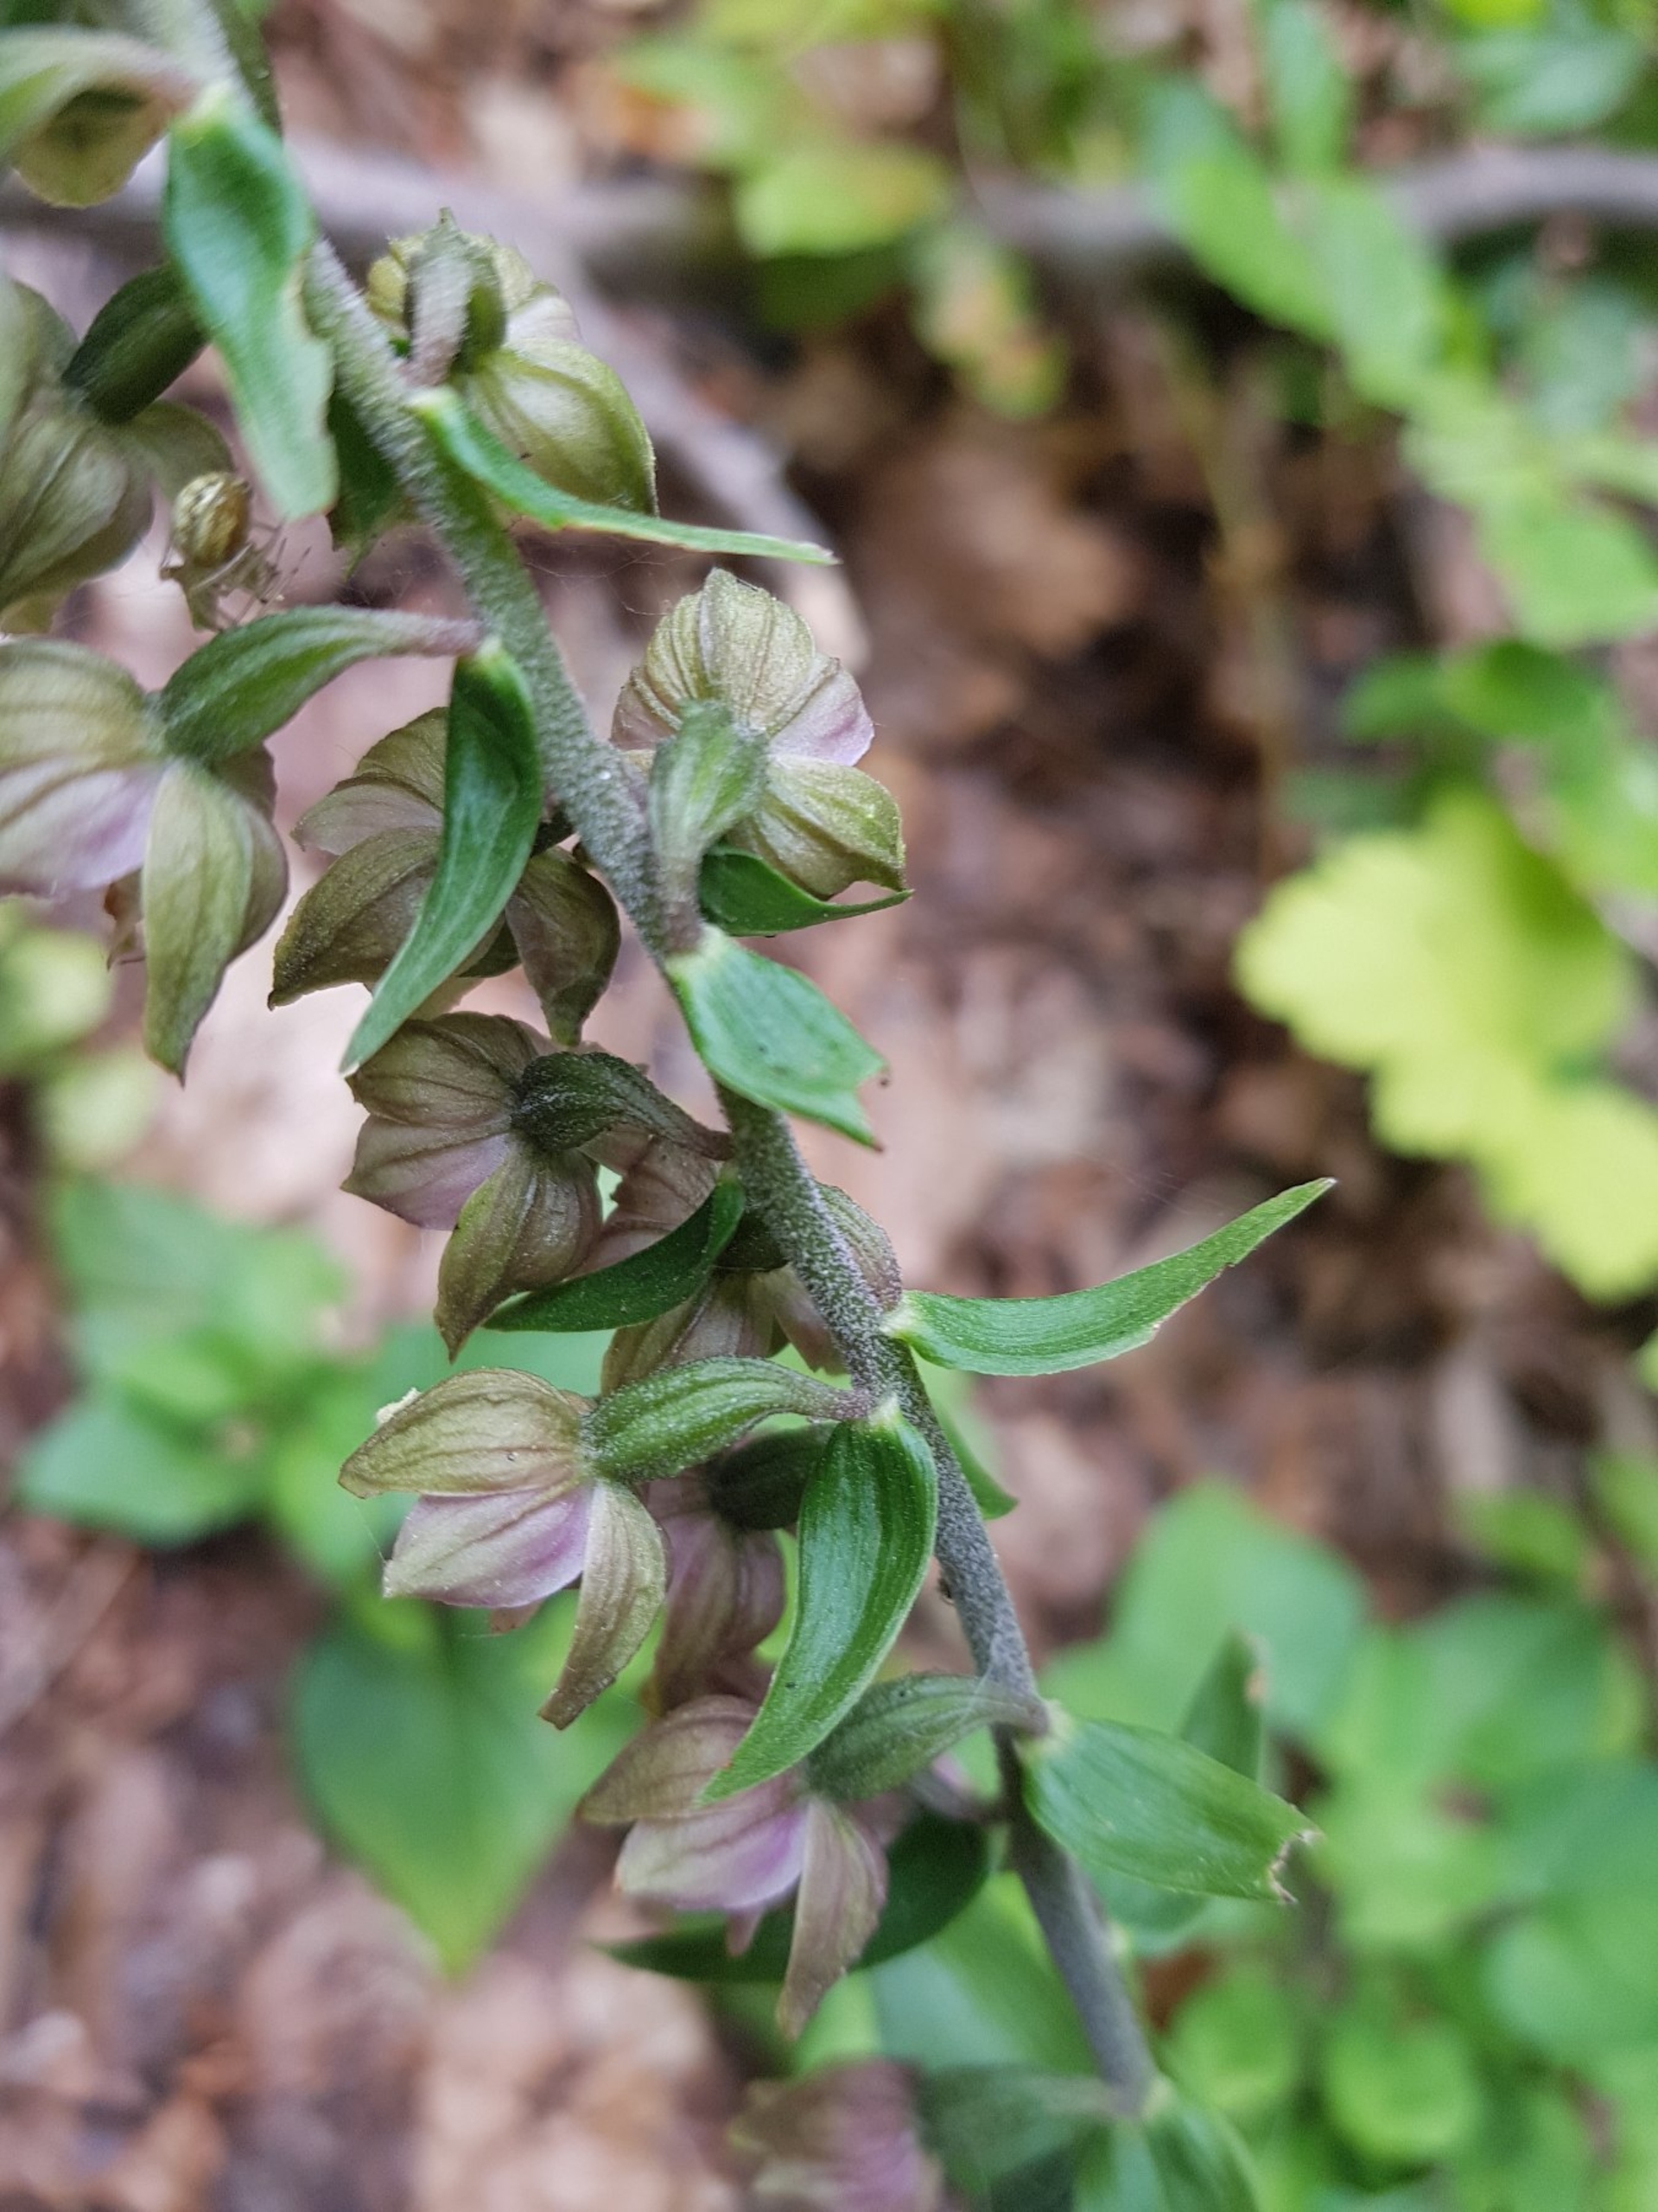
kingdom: Plantae
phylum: Tracheophyta
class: Liliopsida
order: Asparagales
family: Orchidaceae
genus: Epipactis
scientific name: Epipactis helleborine
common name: Skov-hullæbe
